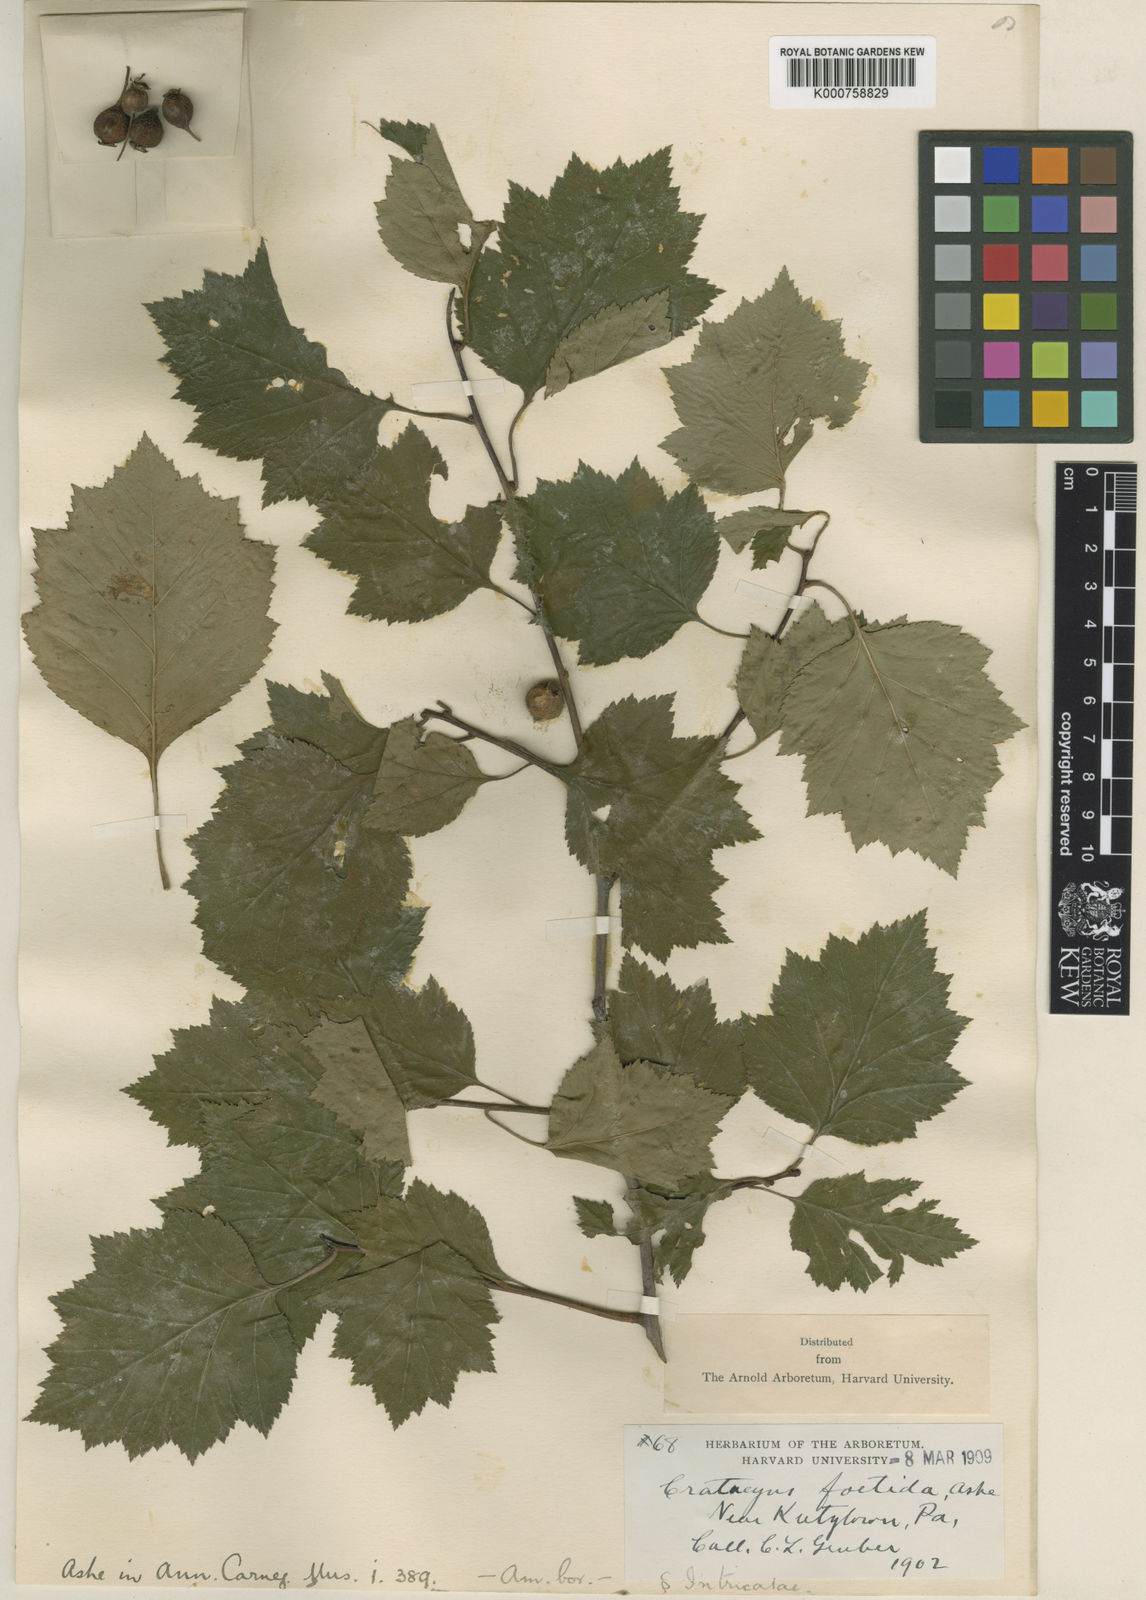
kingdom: Plantae
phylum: Tracheophyta
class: Magnoliopsida
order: Rosales
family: Rosaceae
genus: Crataegus
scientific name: Crataegus intricata
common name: Biltmore hawthorn
